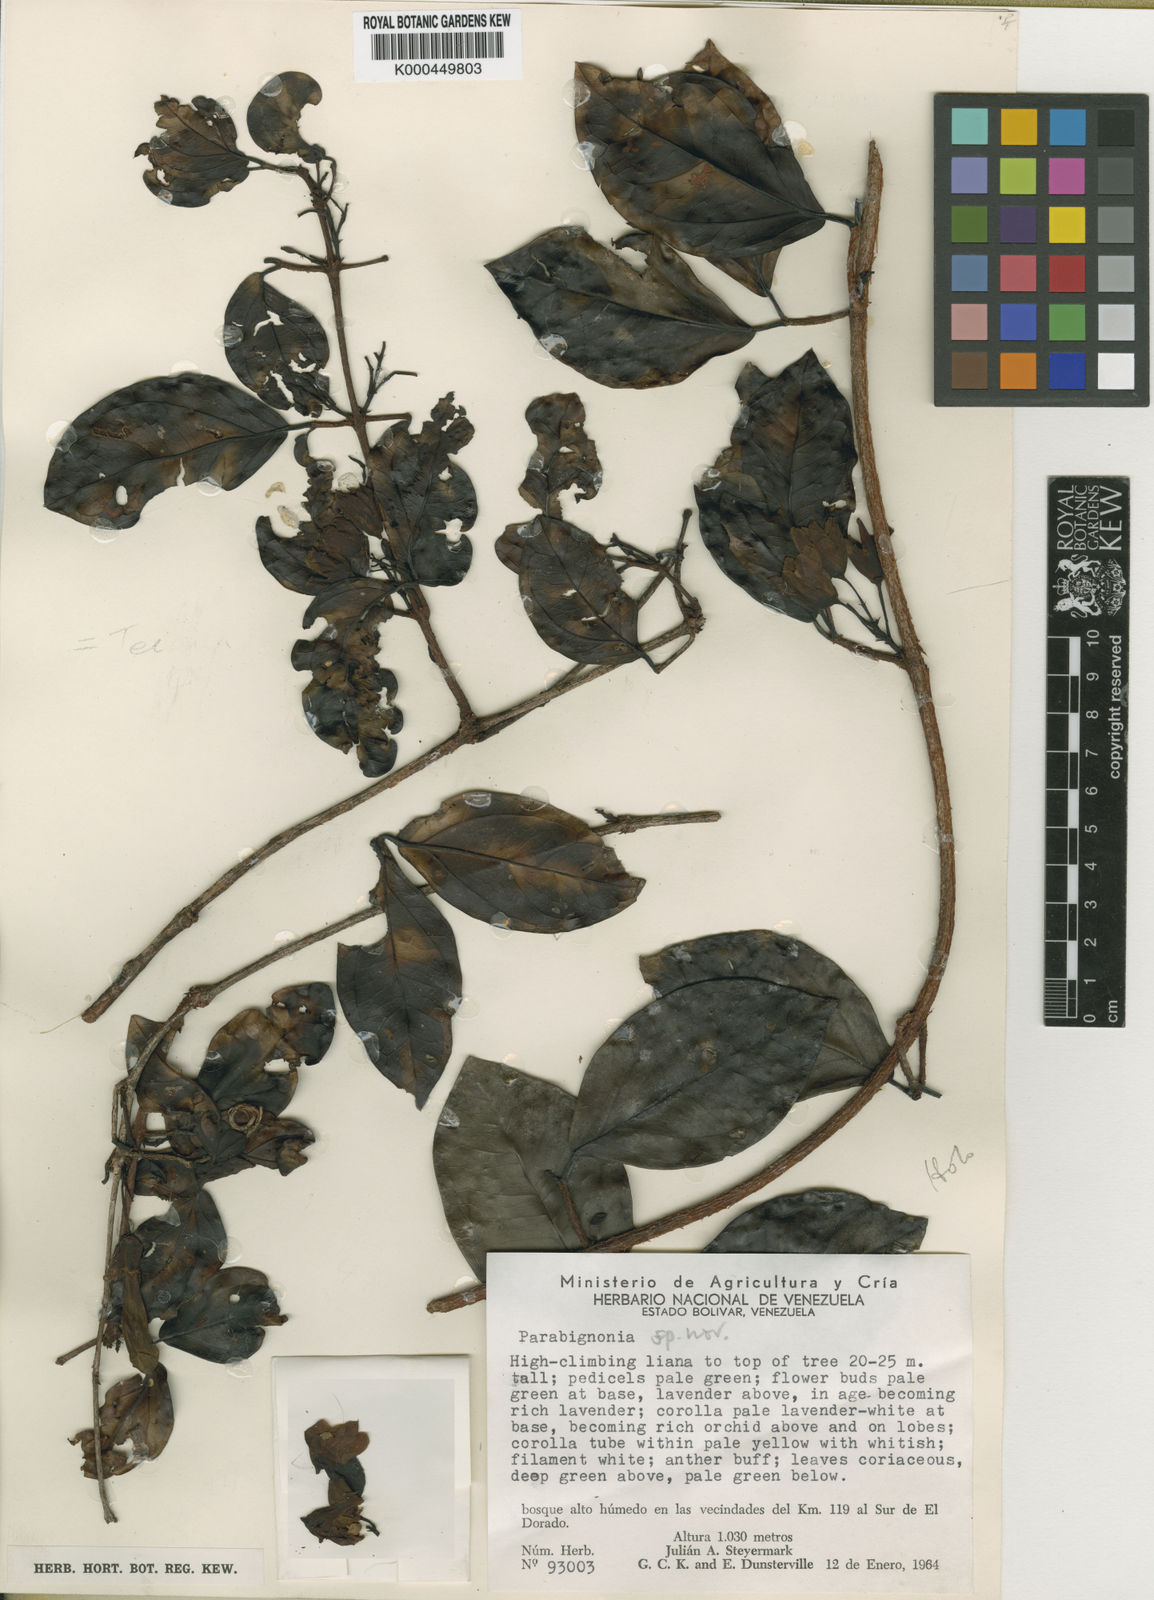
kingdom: Plantae
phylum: Tracheophyta
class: Magnoliopsida
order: Lamiales
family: Bignoniaceae
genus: Dolichandra
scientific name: Dolichandra steyermarkii
